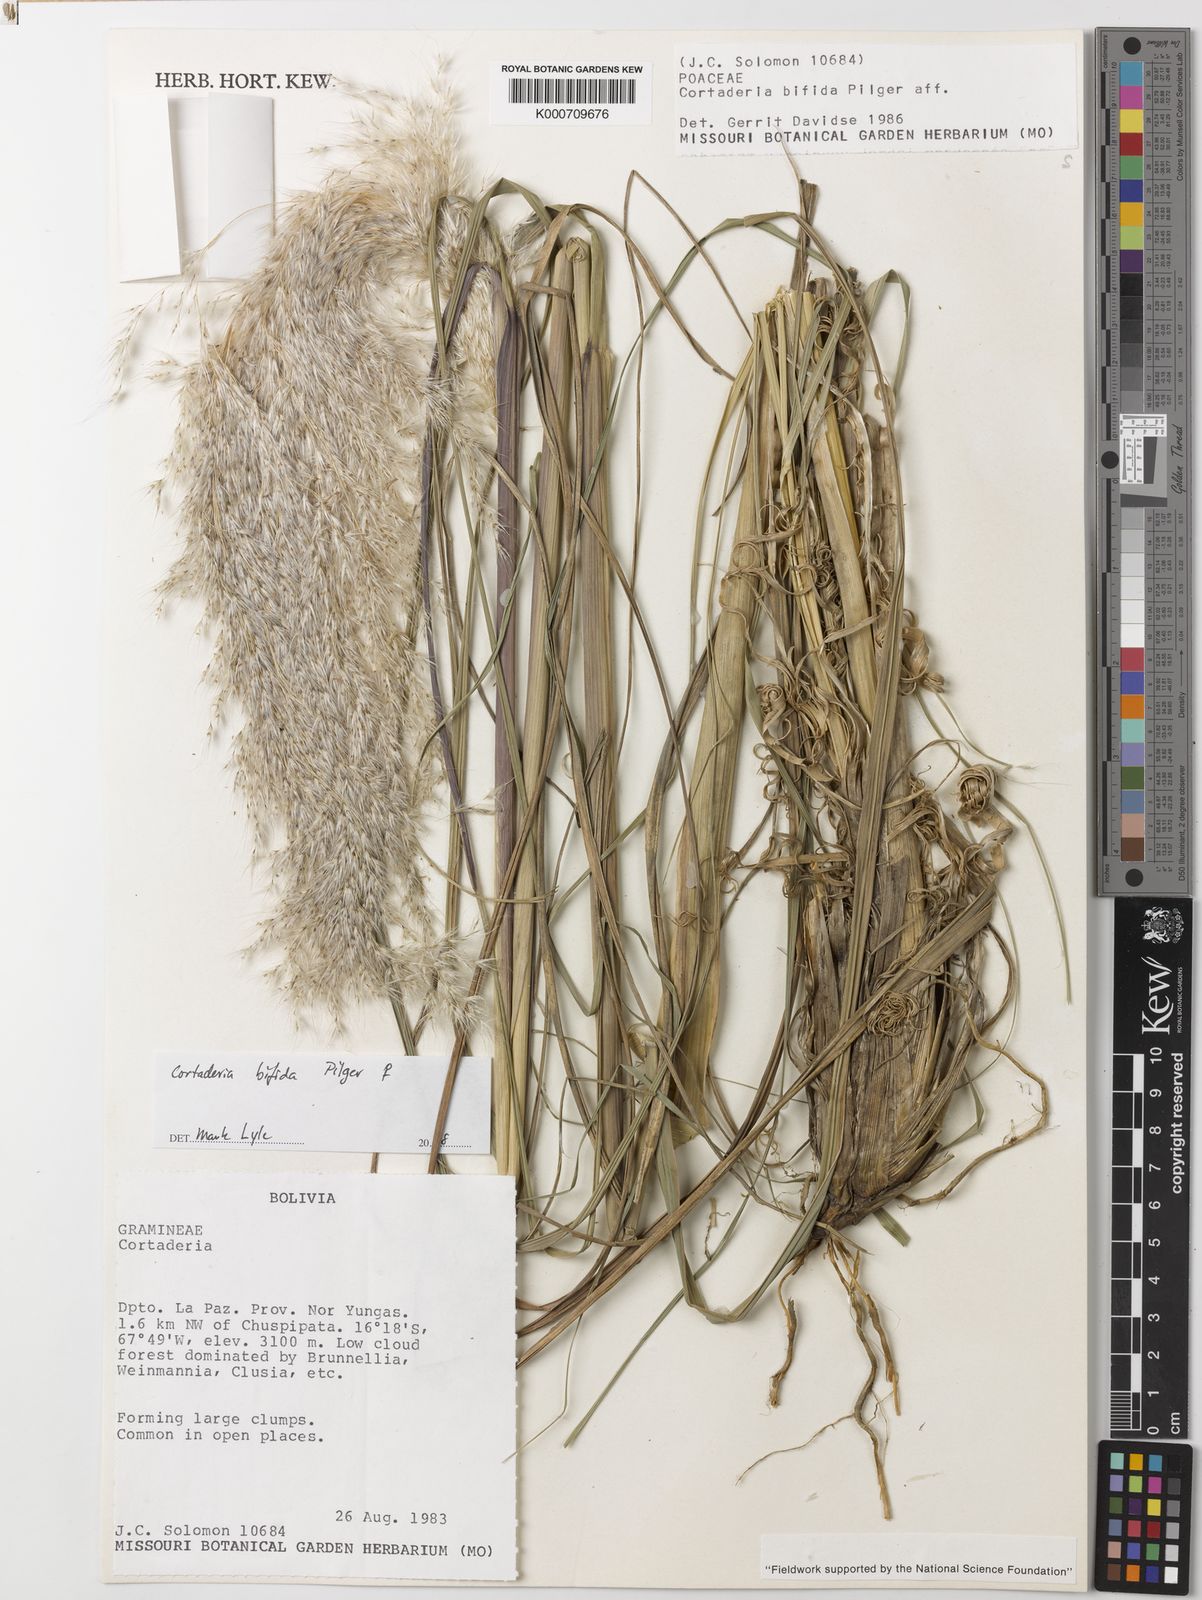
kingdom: Plantae
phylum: Tracheophyta
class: Liliopsida
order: Poales
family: Poaceae
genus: Cortaderia
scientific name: Cortaderia bifida
